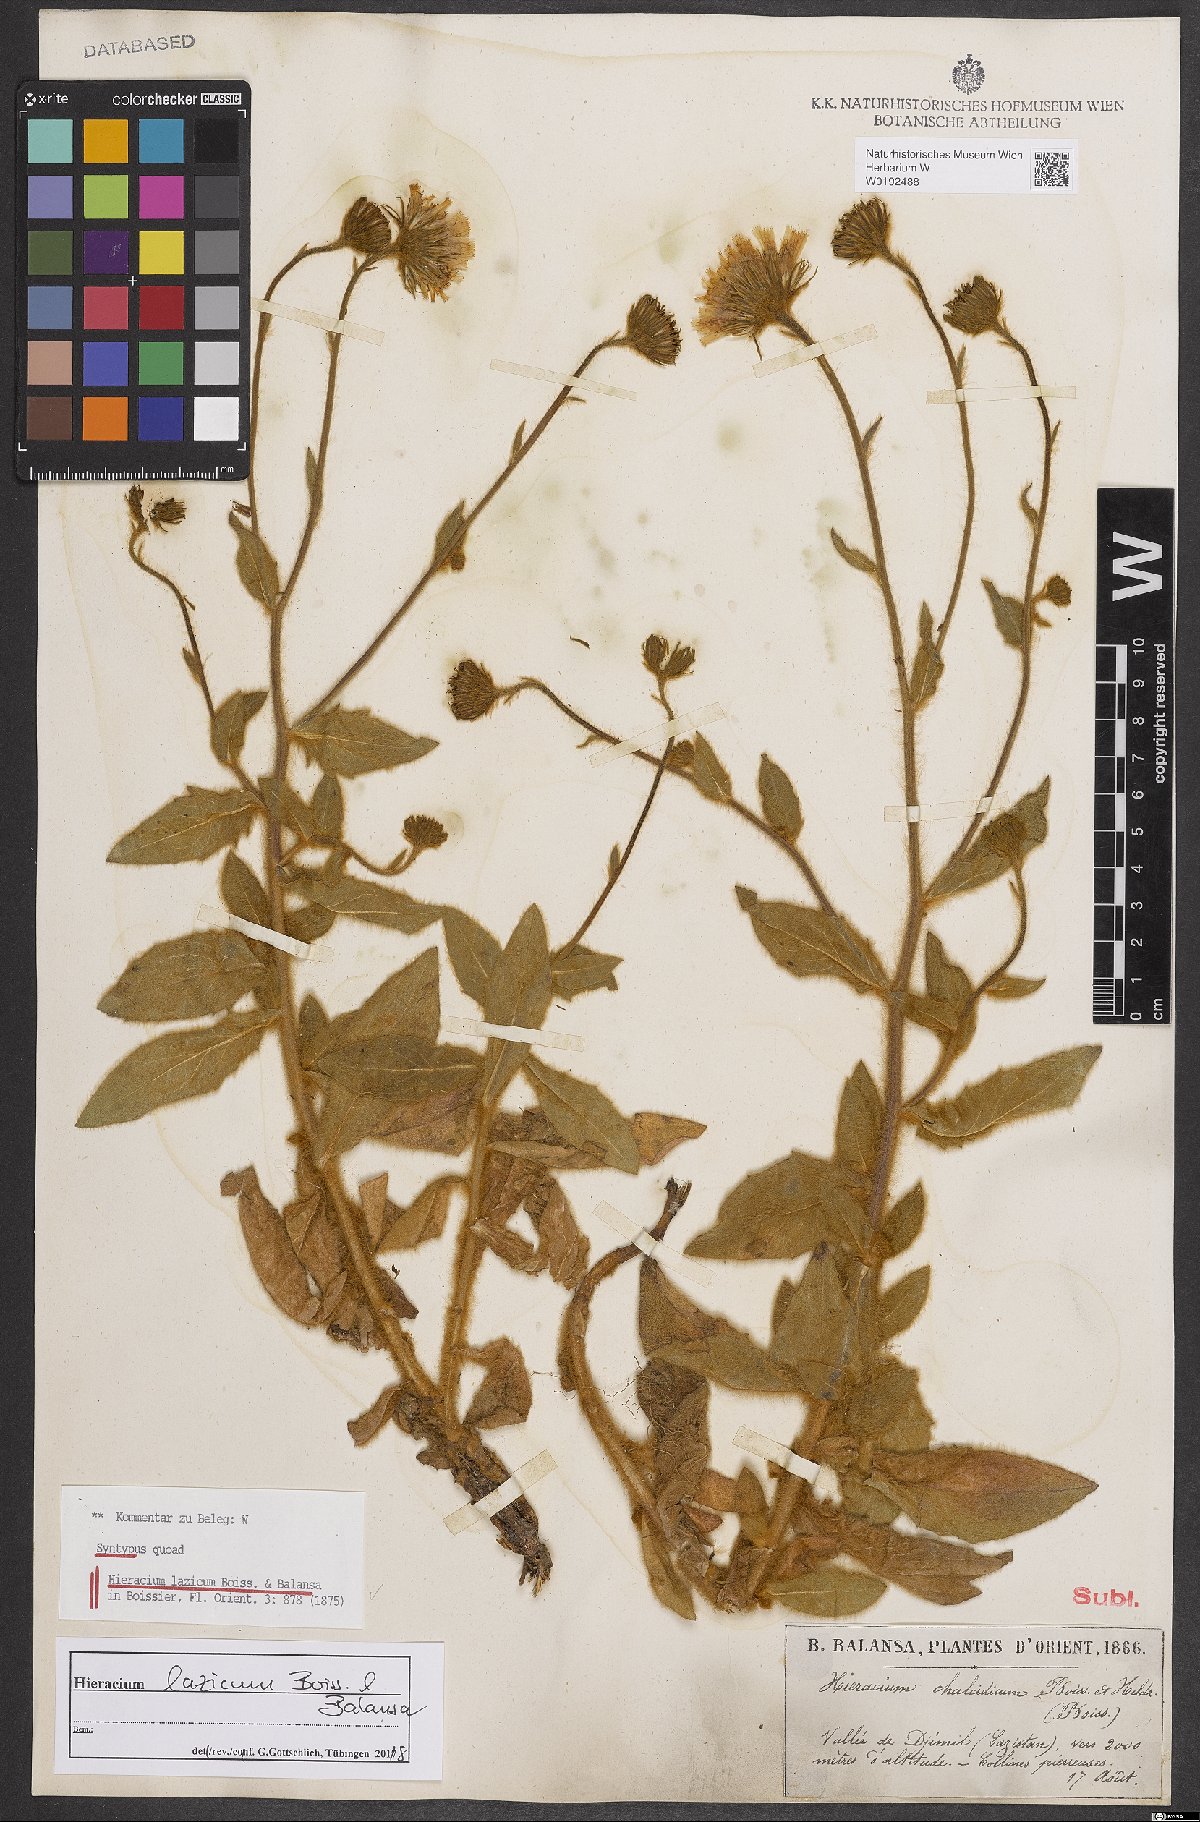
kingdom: Plantae
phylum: Tracheophyta
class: Magnoliopsida
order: Asterales
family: Asteraceae
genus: Hieracium
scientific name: Hieracium lazicum
